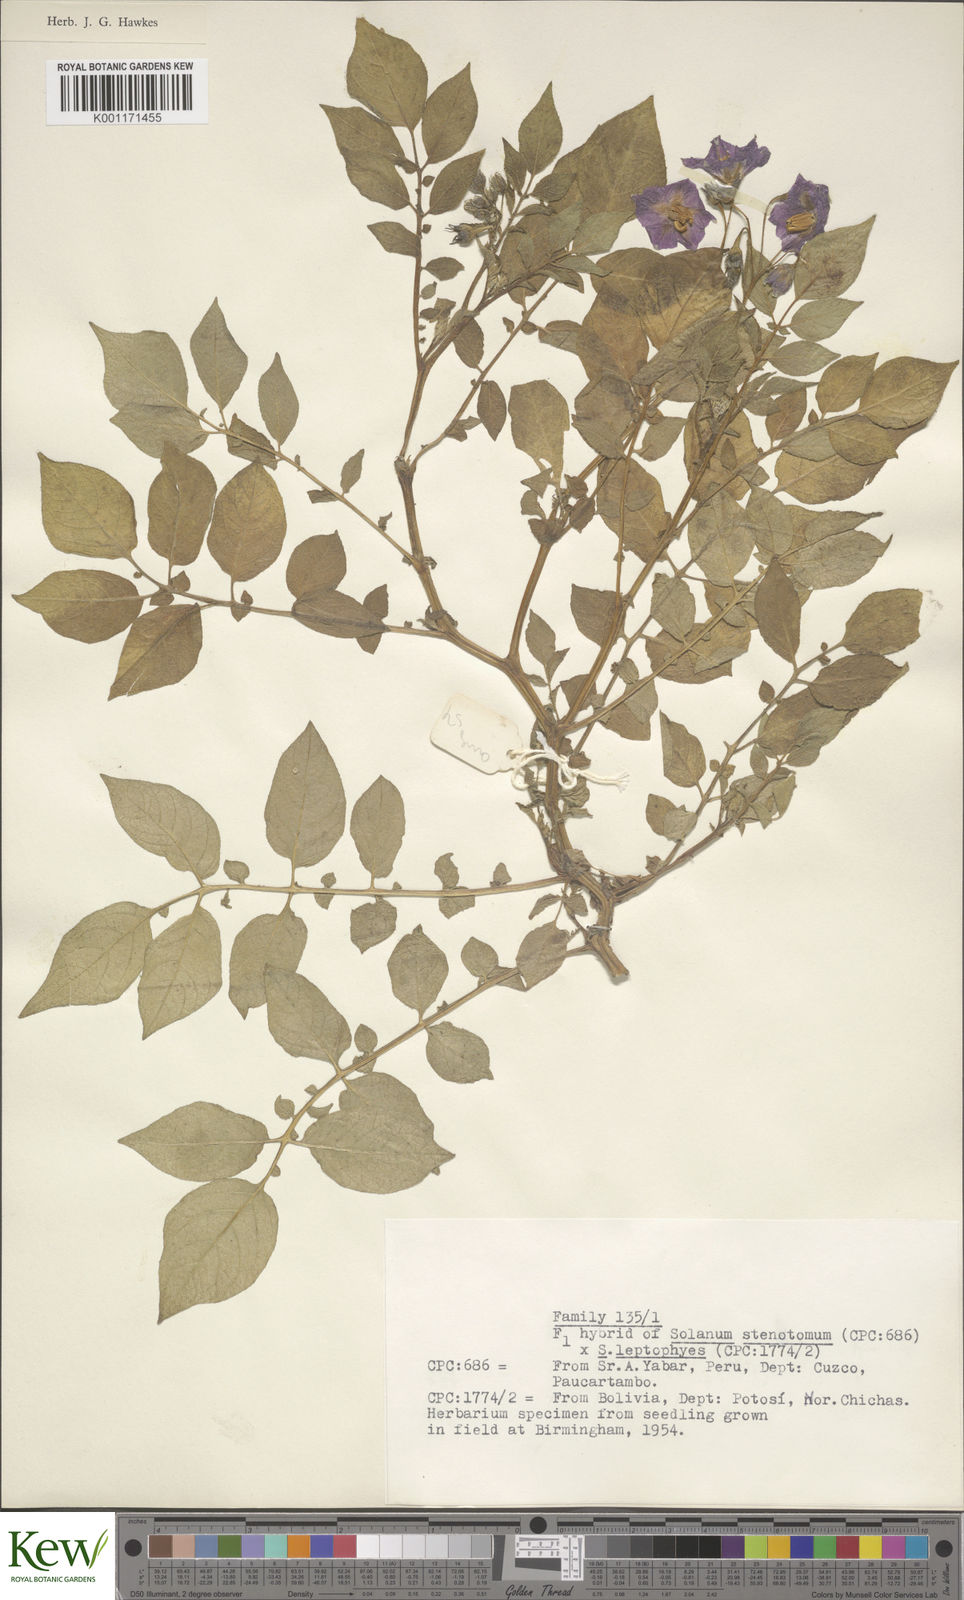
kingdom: Plantae
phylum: Tracheophyta
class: Magnoliopsida
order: Solanales
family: Solanaceae
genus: Solanum
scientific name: Solanum tuberosum
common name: Potato
